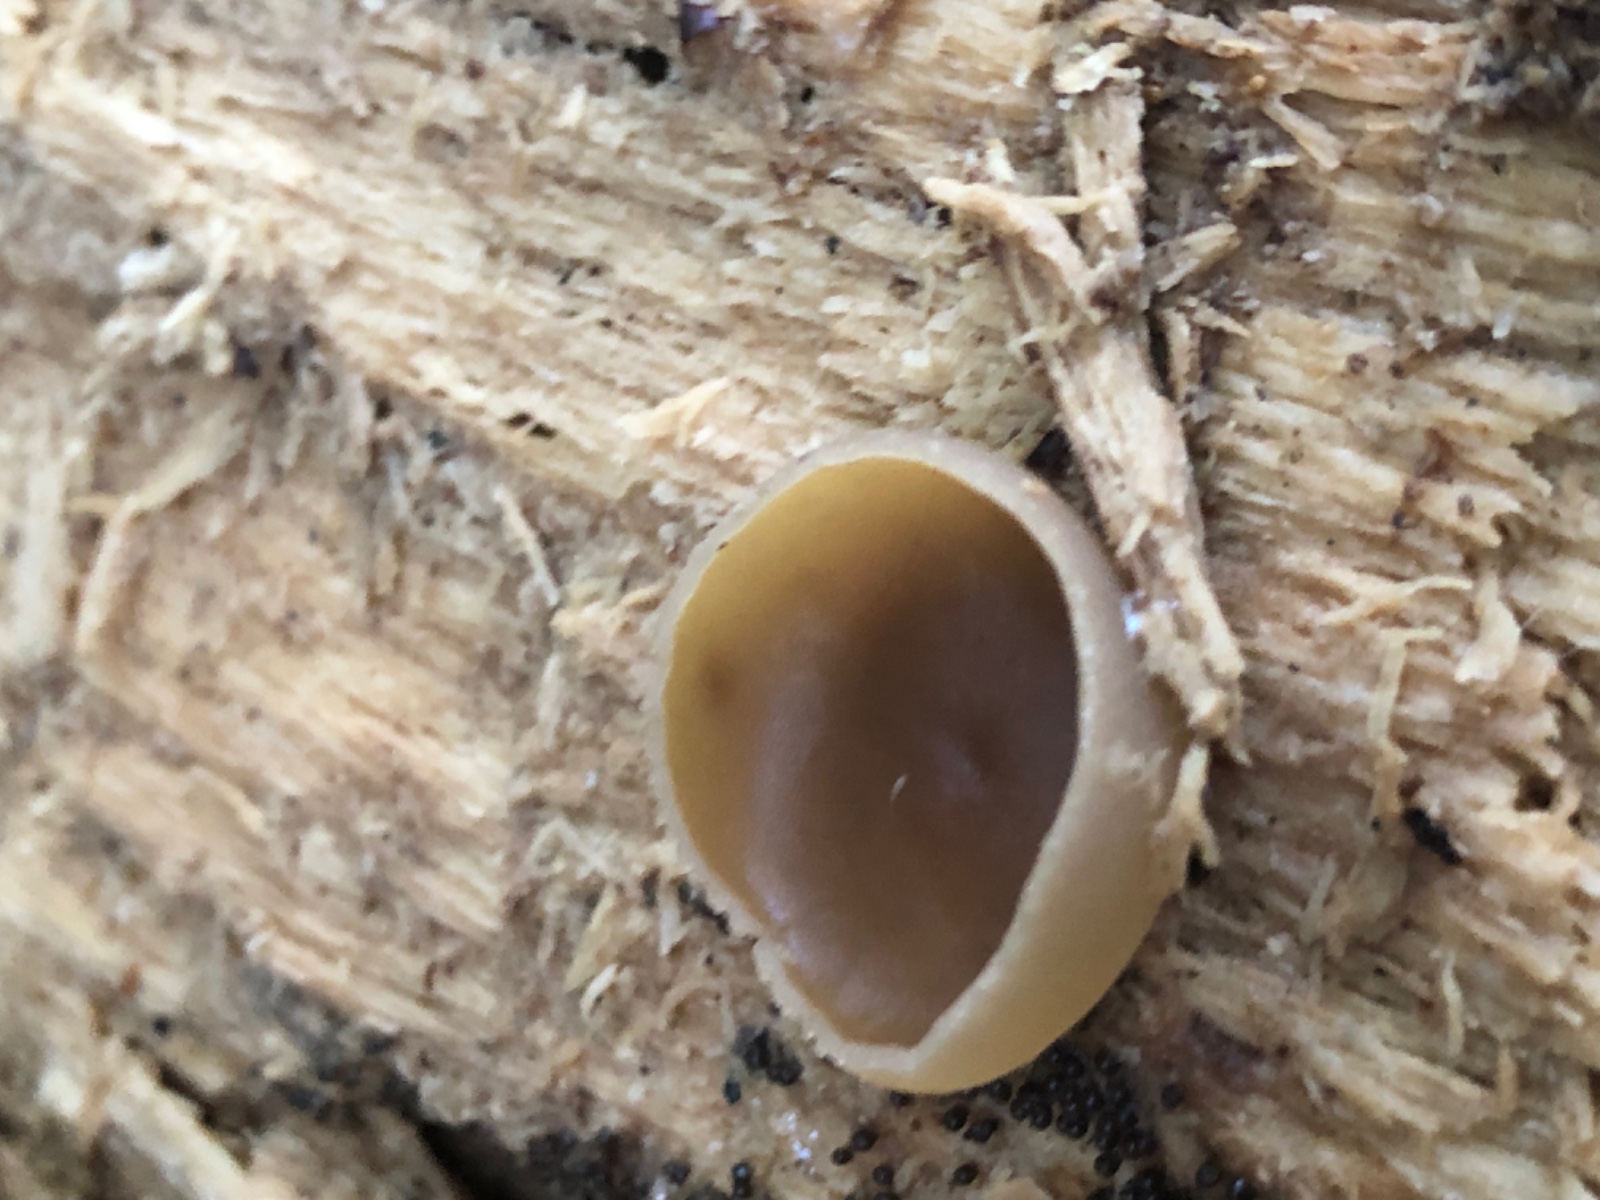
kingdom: Fungi
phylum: Ascomycota
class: Pezizomycetes
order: Pezizales
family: Pezizaceae
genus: Peziza
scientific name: Peziza varia
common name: Ved-bægersvamp
